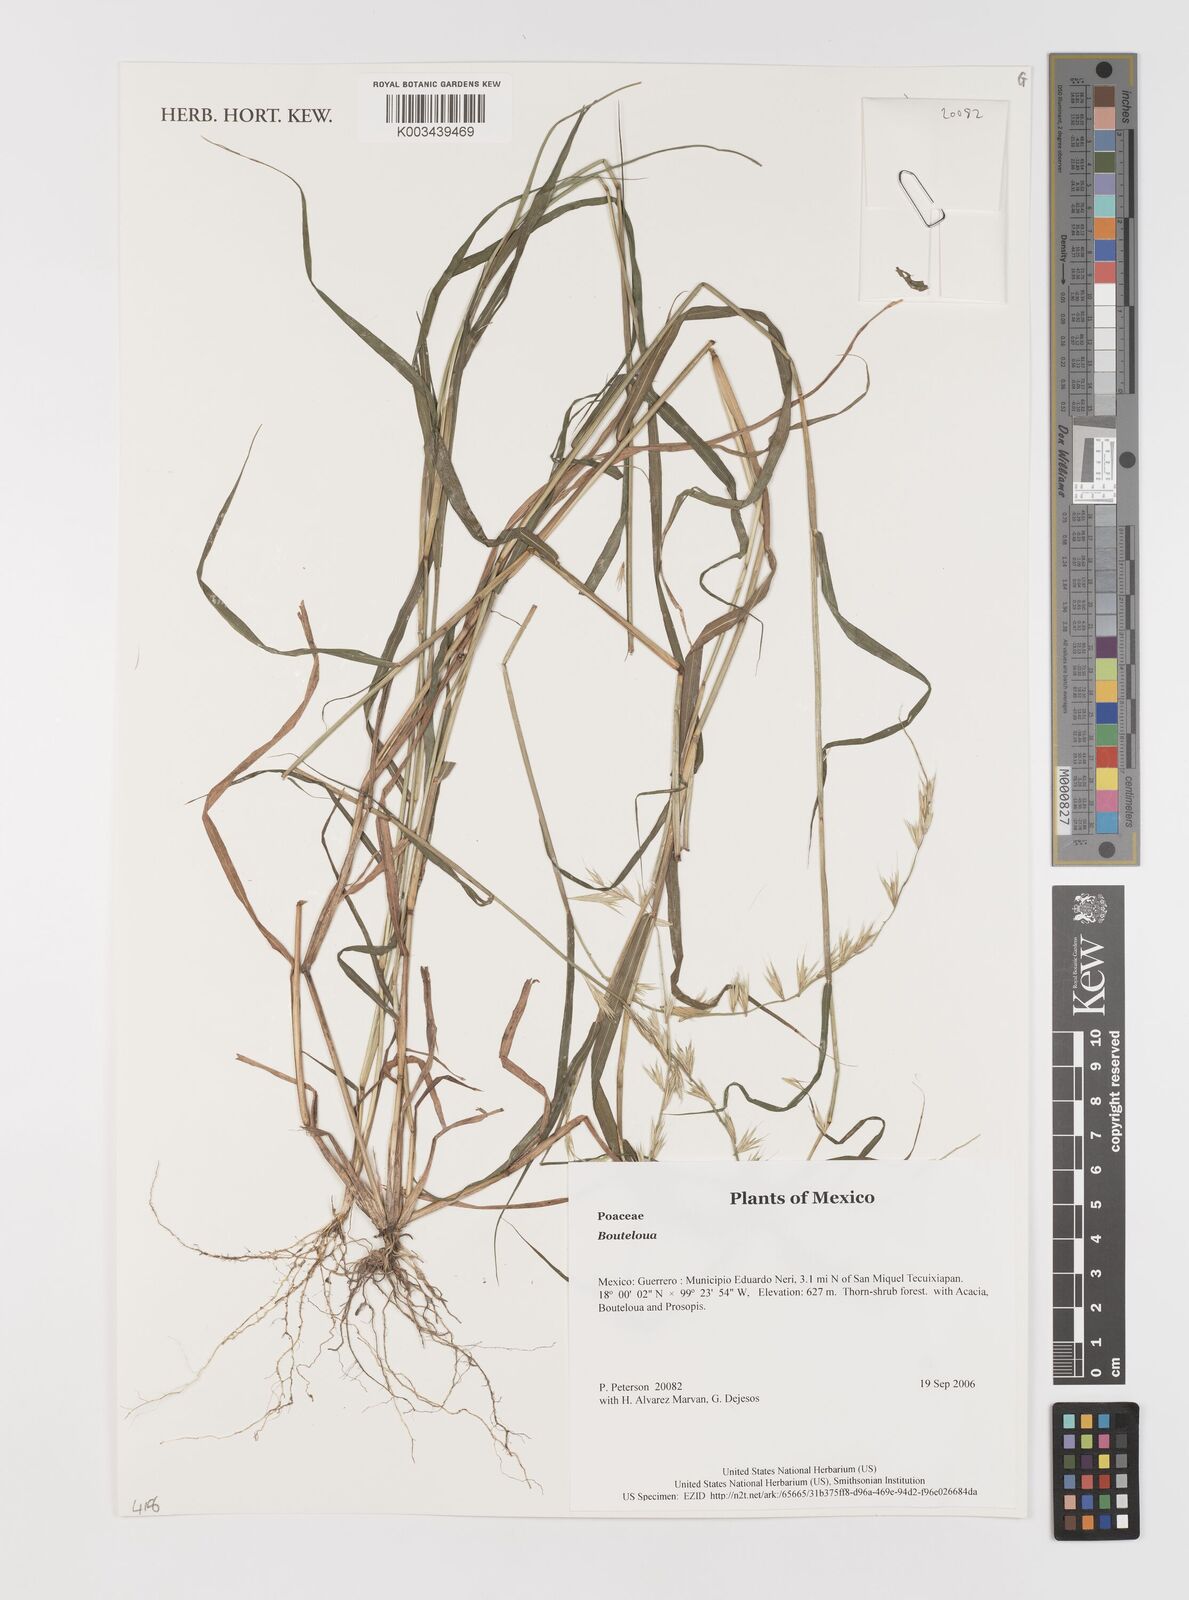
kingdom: Plantae
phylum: Tracheophyta
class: Liliopsida
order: Poales
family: Poaceae
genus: Bouteloua
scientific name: Bouteloua
